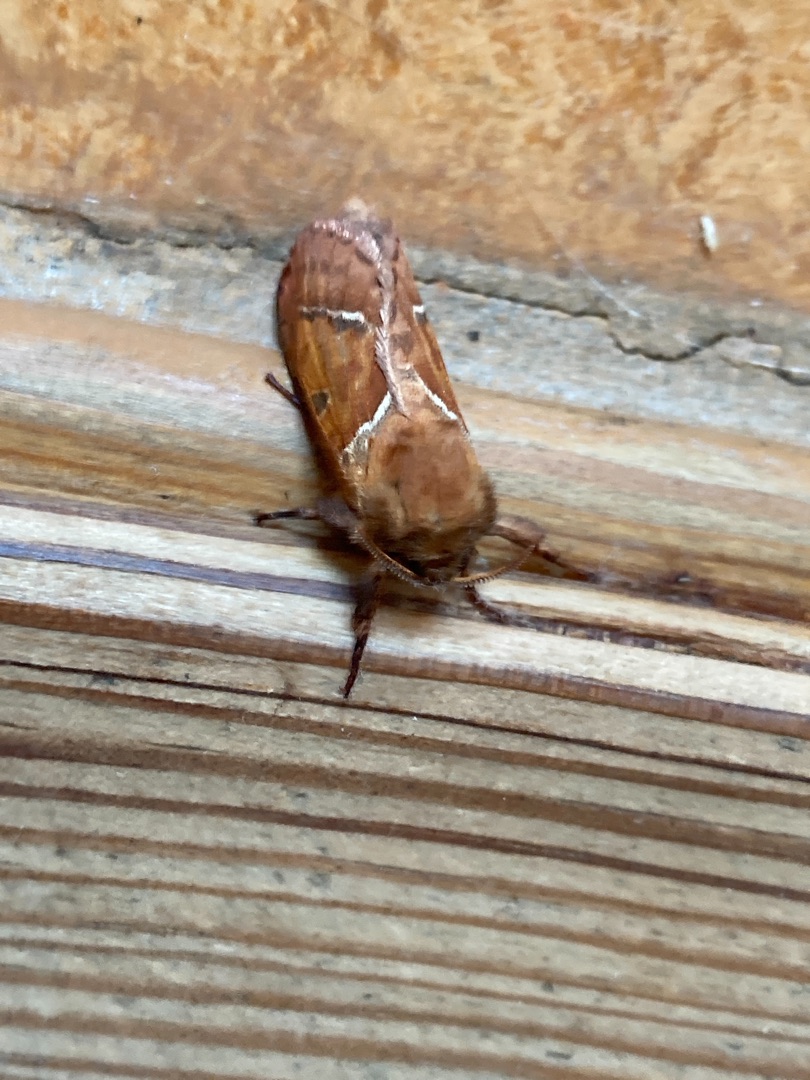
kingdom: Animalia
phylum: Arthropoda
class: Insecta
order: Lepidoptera
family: Hepialidae
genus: Triodia
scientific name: Triodia sylvina
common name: Skræpperodæder
